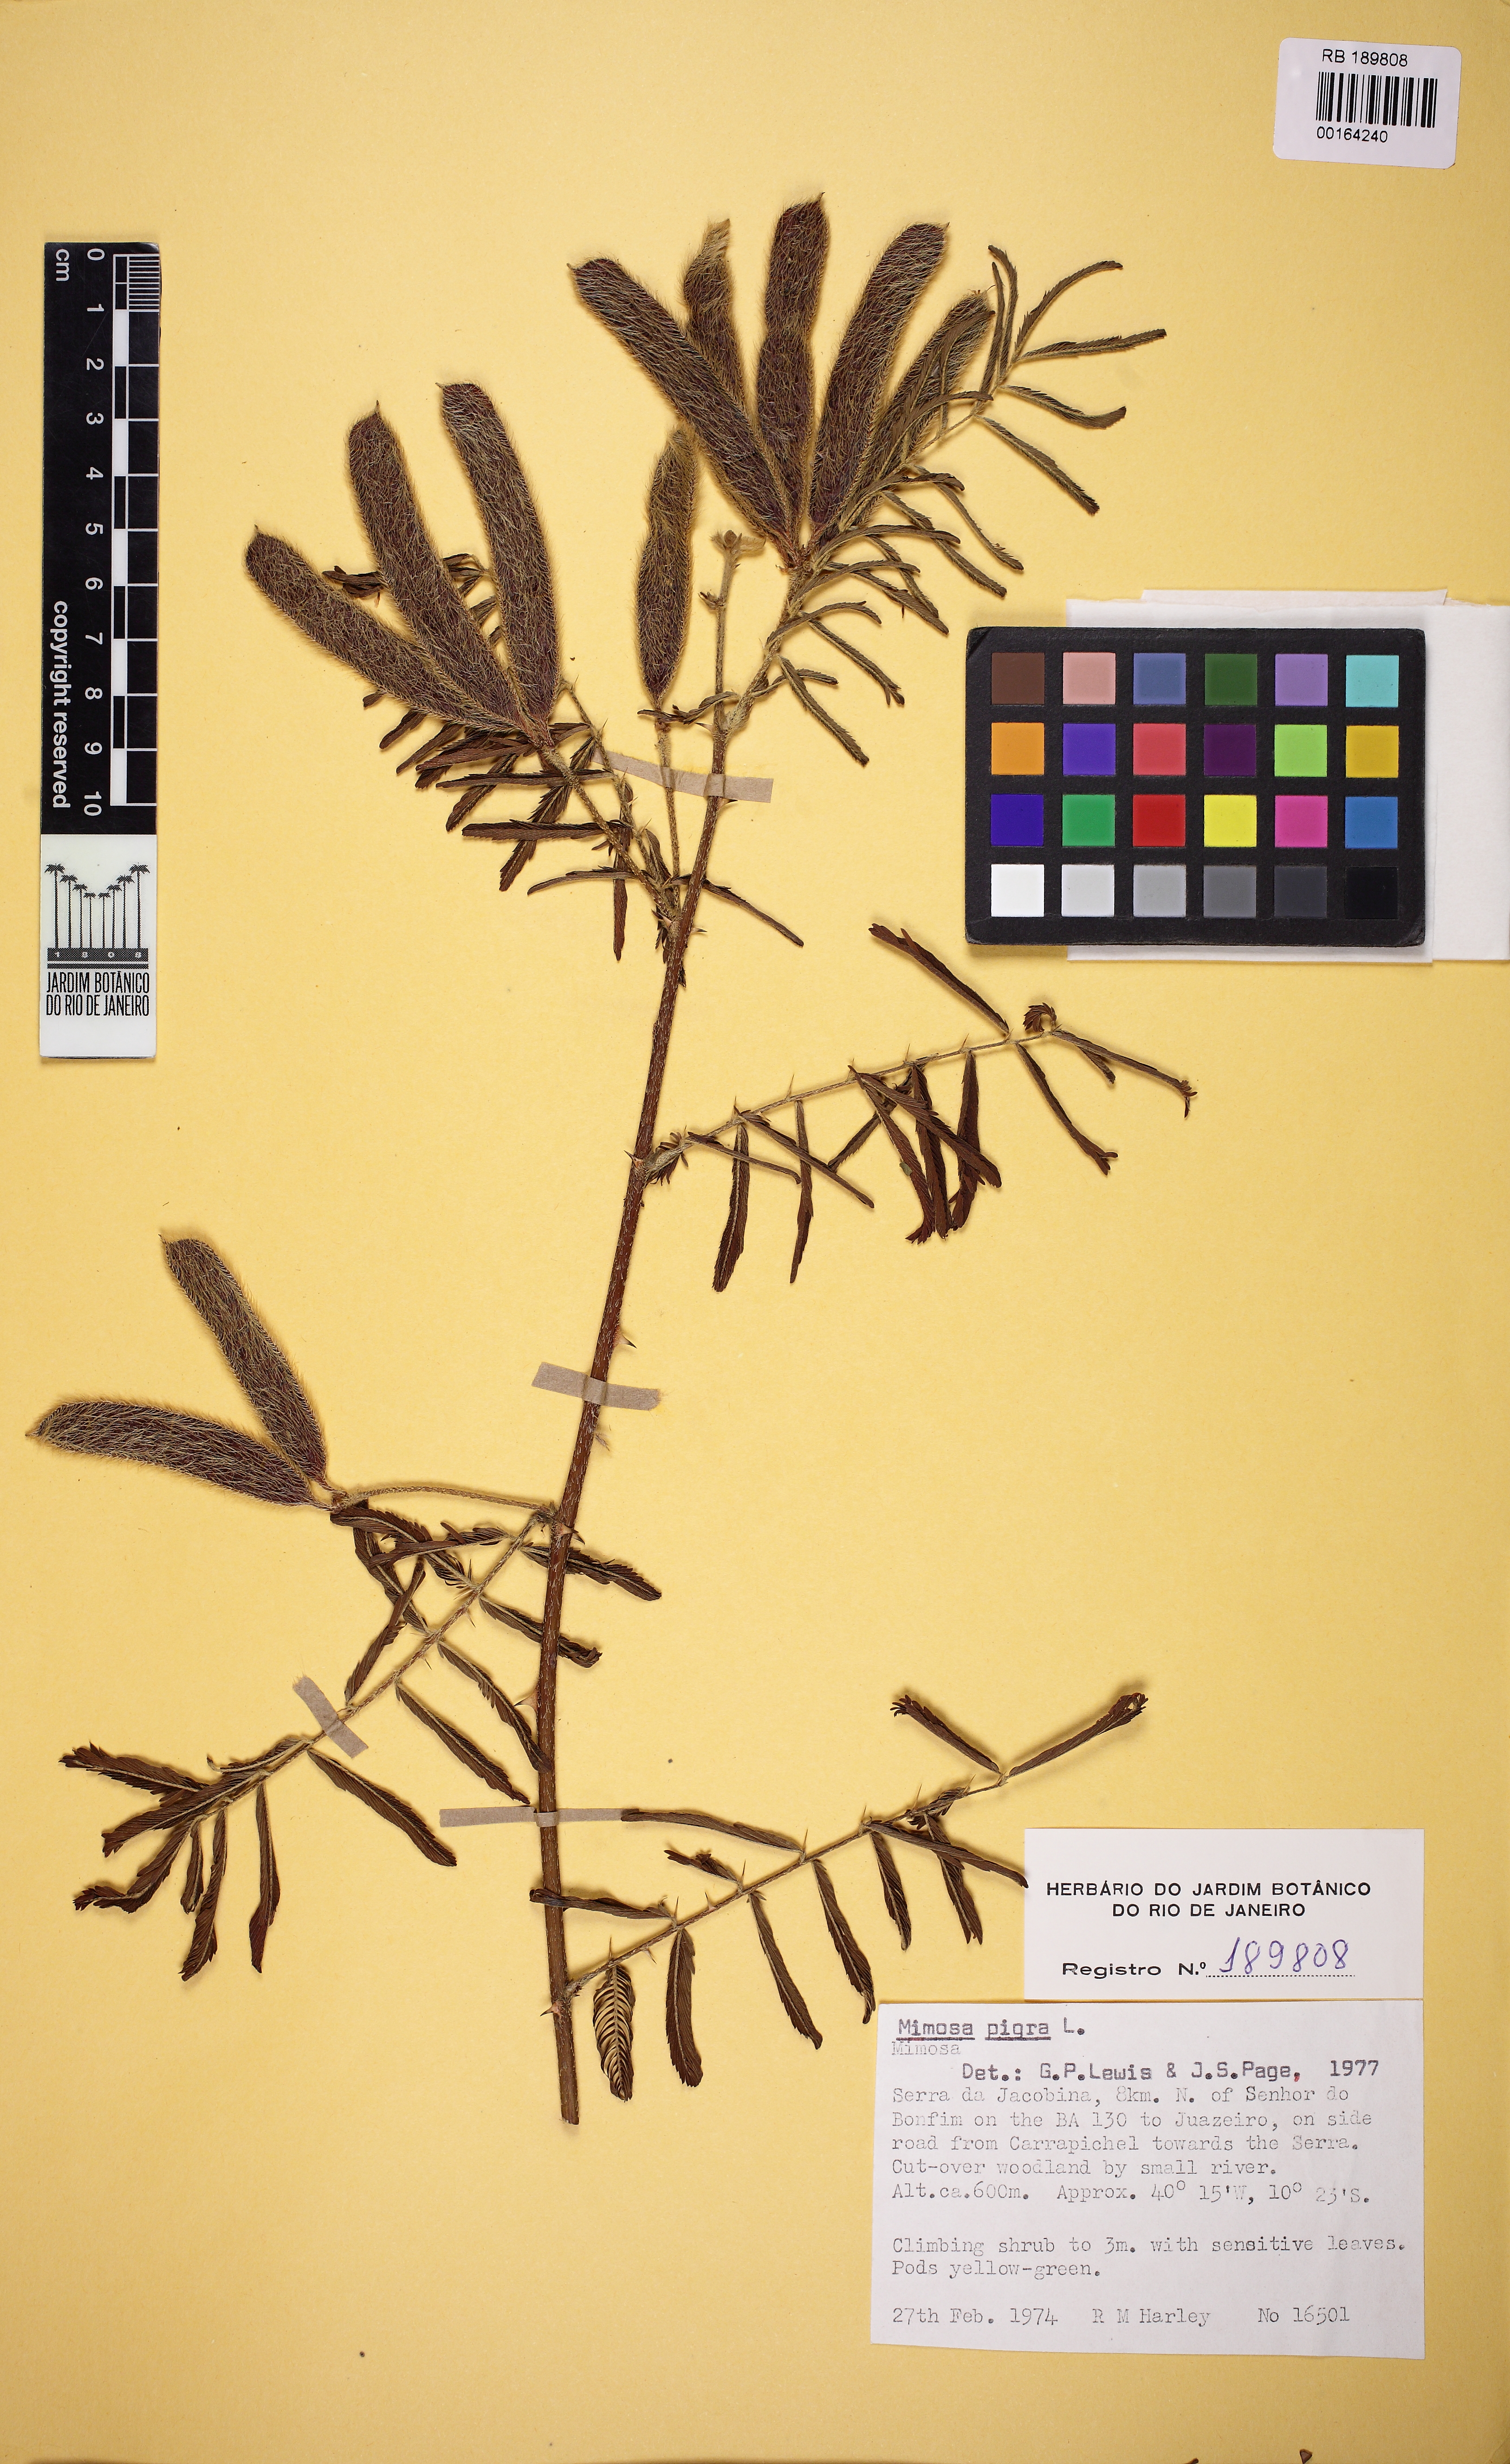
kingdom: Plantae
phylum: Tracheophyta
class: Magnoliopsida
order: Fabales
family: Fabaceae
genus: Mimosa
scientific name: Mimosa pigra
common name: Black mimosa
